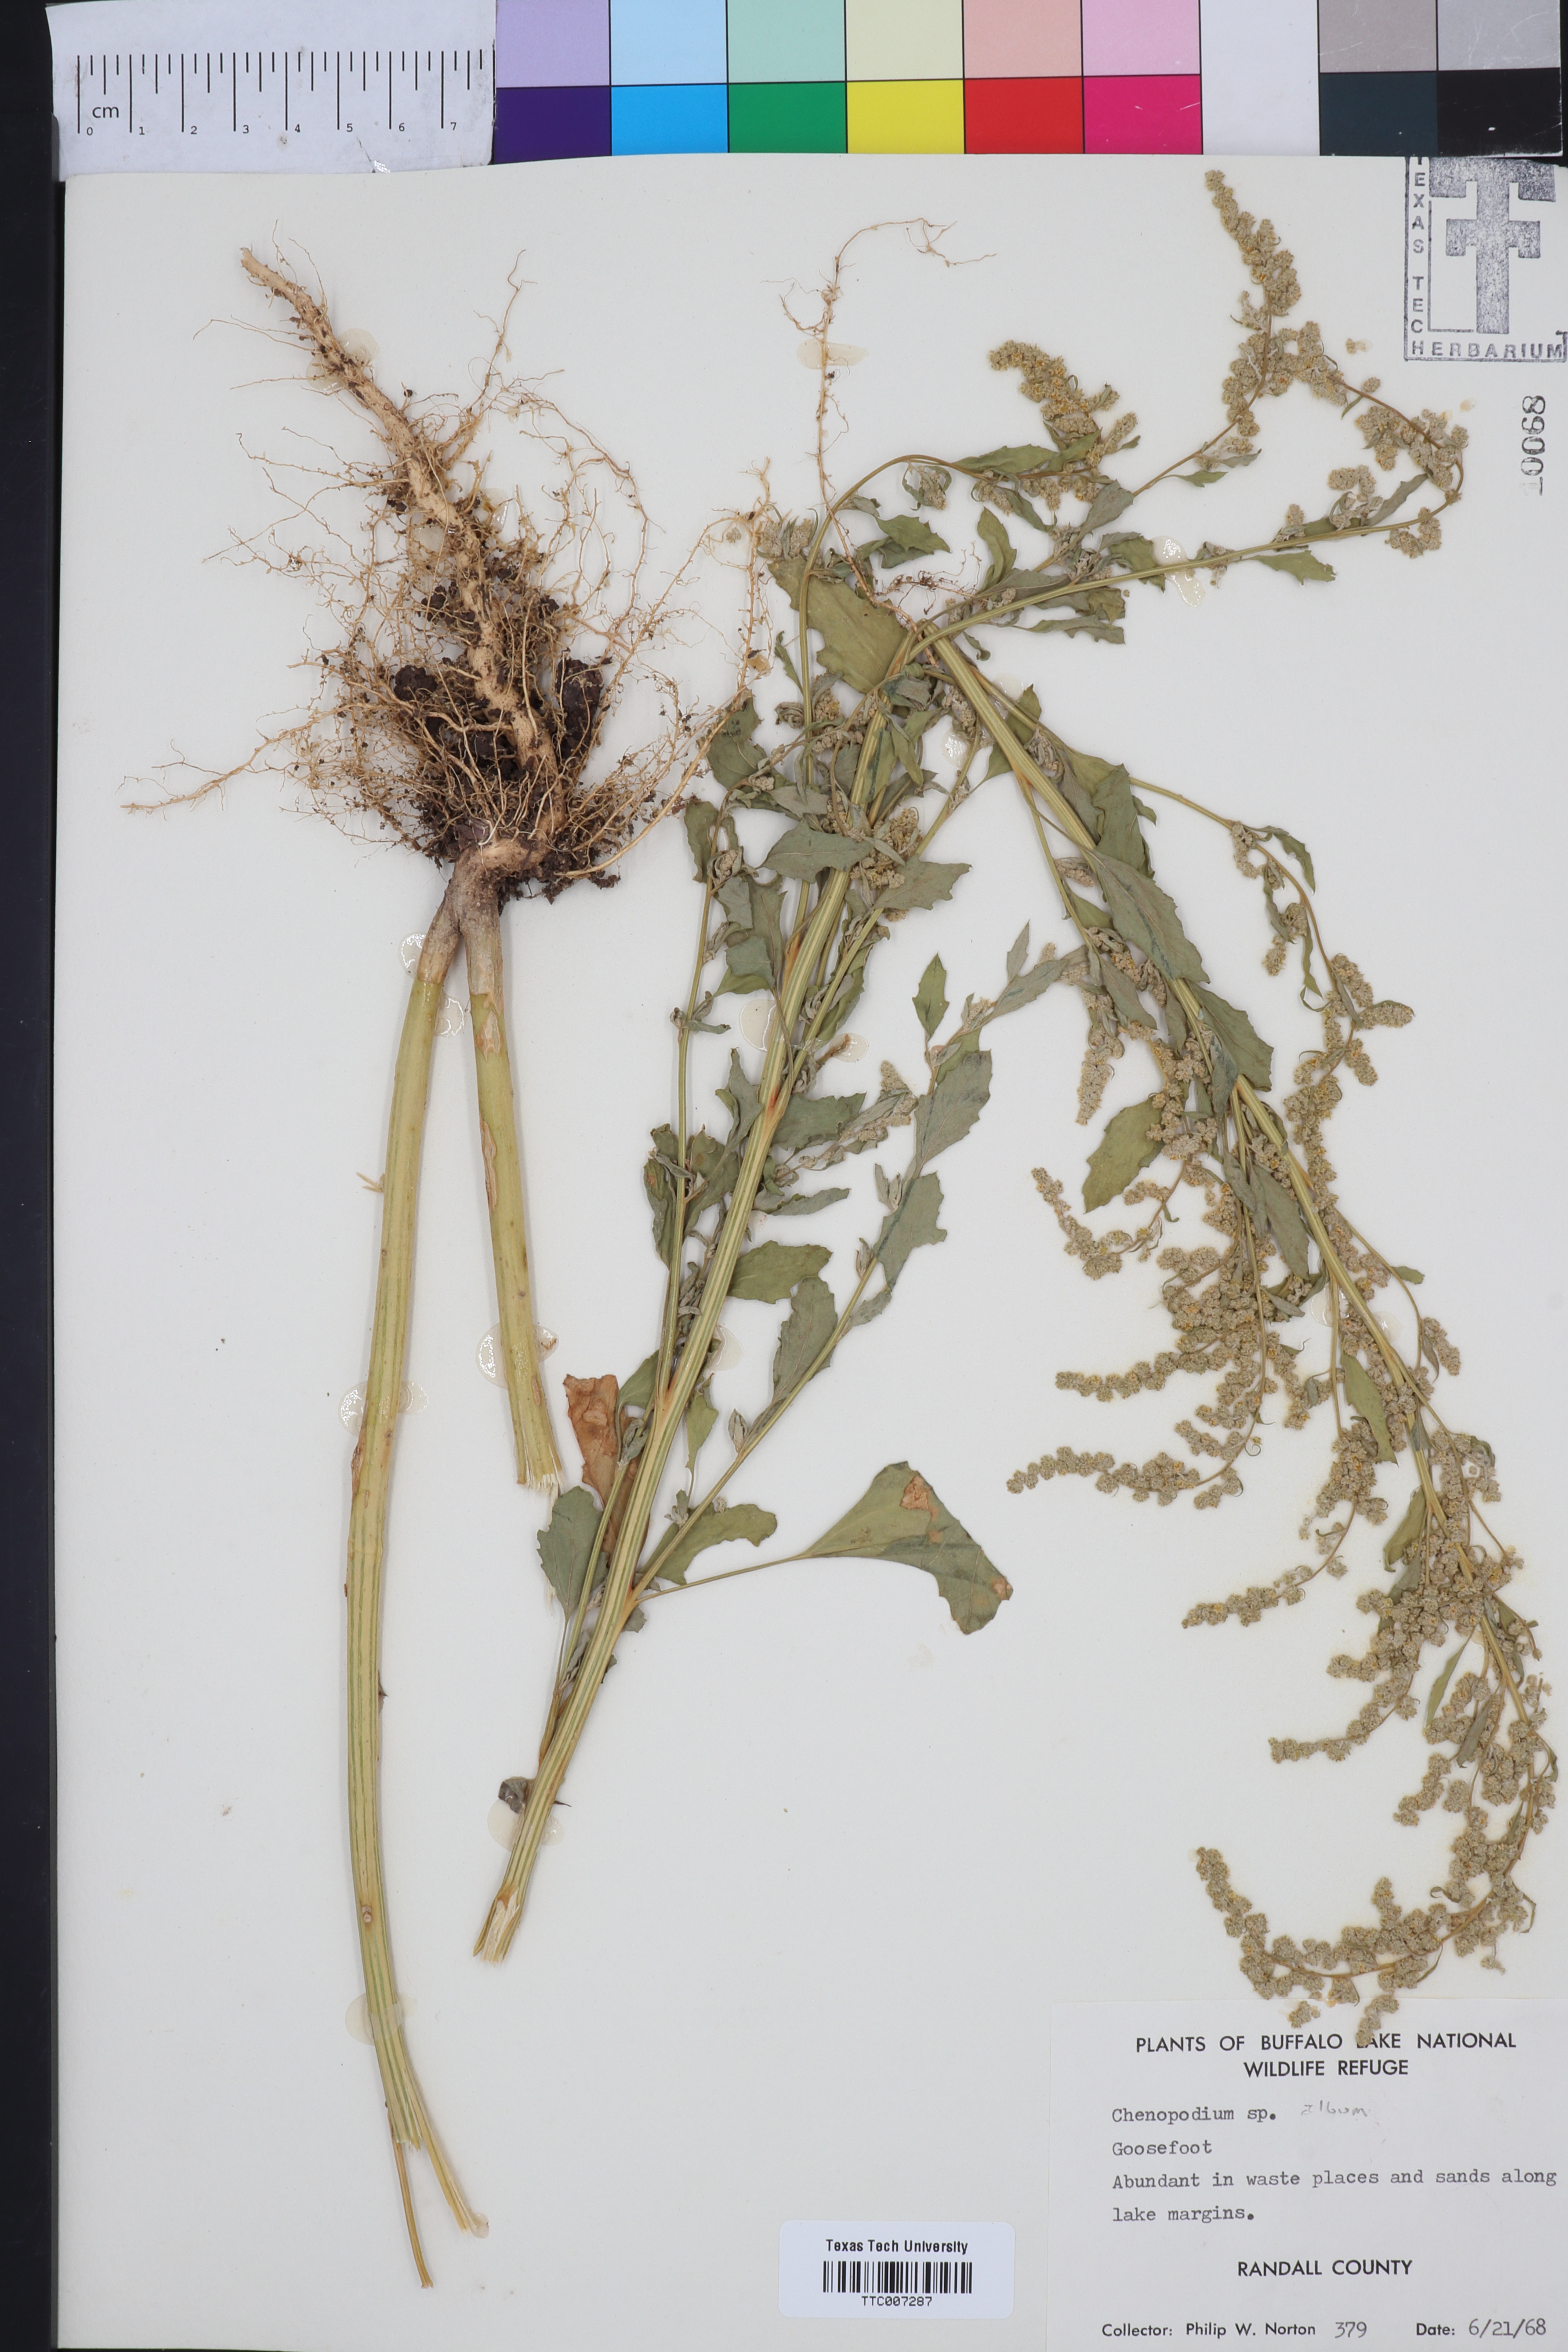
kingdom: Plantae
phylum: Tracheophyta
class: Magnoliopsida
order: Caryophyllales
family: Amaranthaceae
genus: Chenopodium
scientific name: Chenopodium album
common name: Fat-hen
